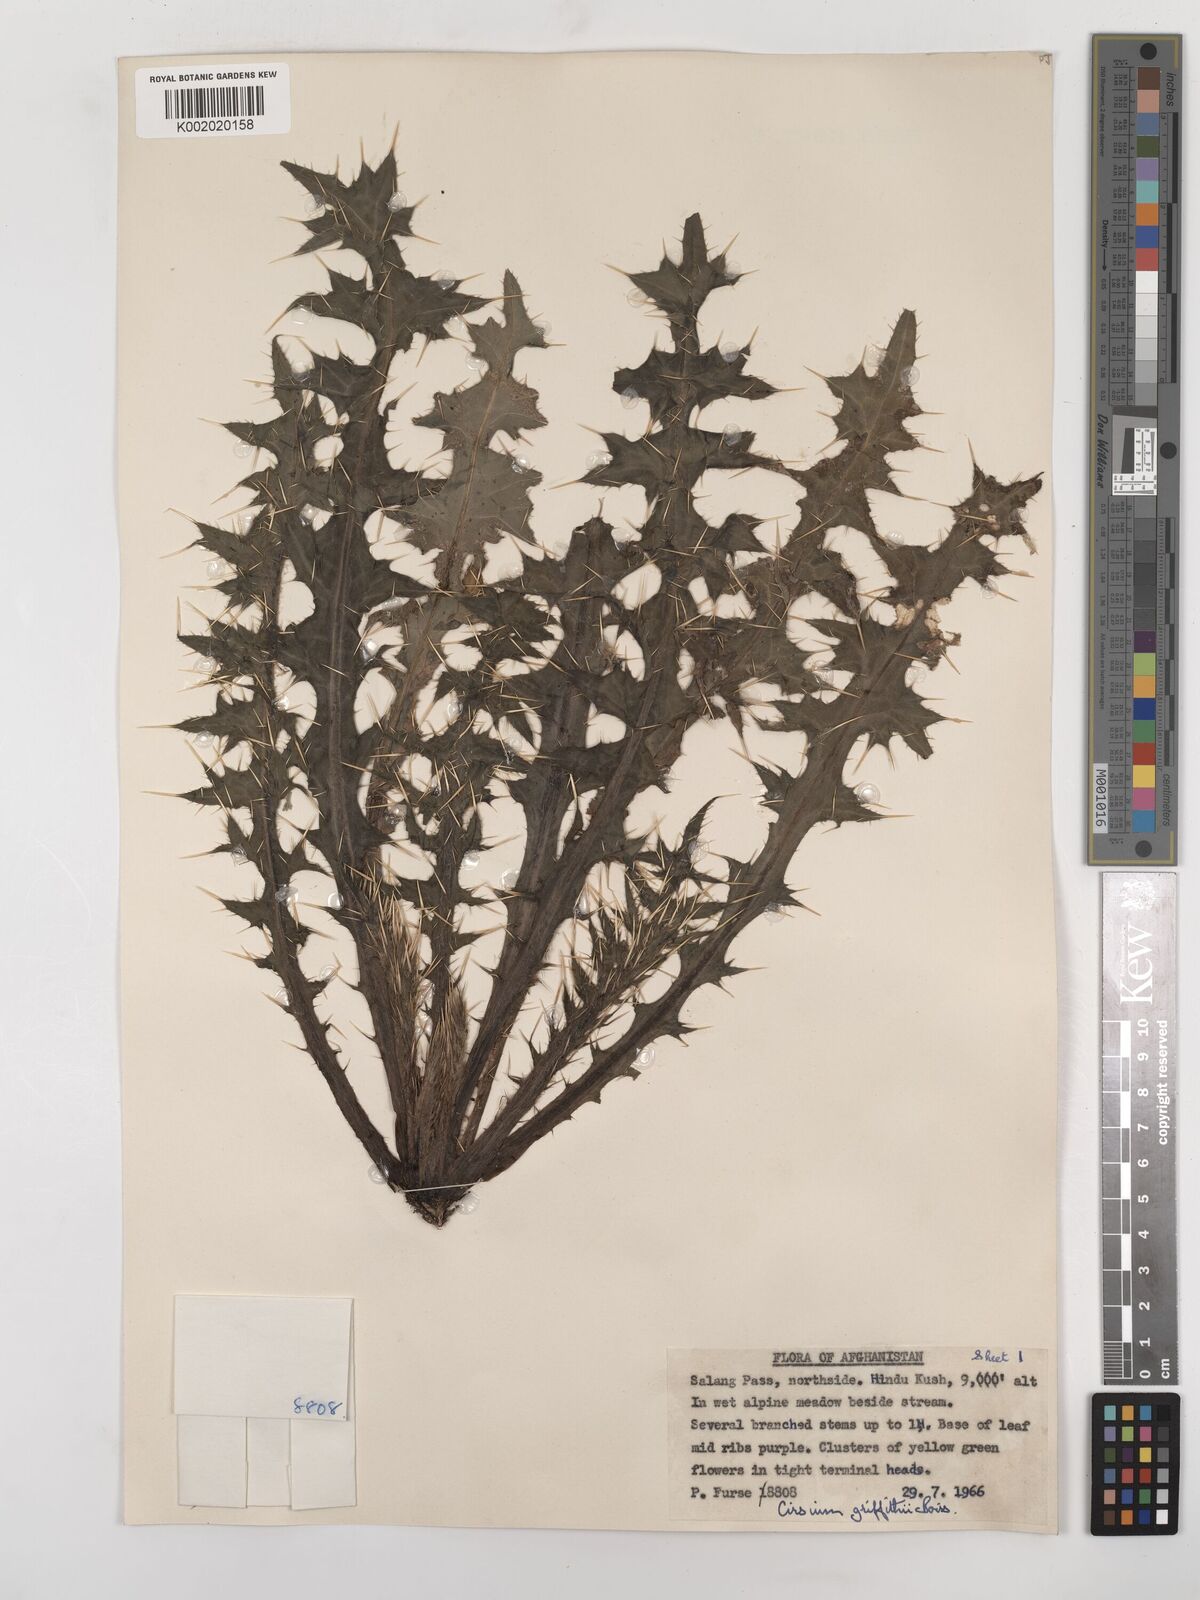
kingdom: Plantae
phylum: Tracheophyta
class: Magnoliopsida
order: Asterales
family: Asteraceae
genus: Lophiolepis
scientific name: Lophiolepis griffithii
